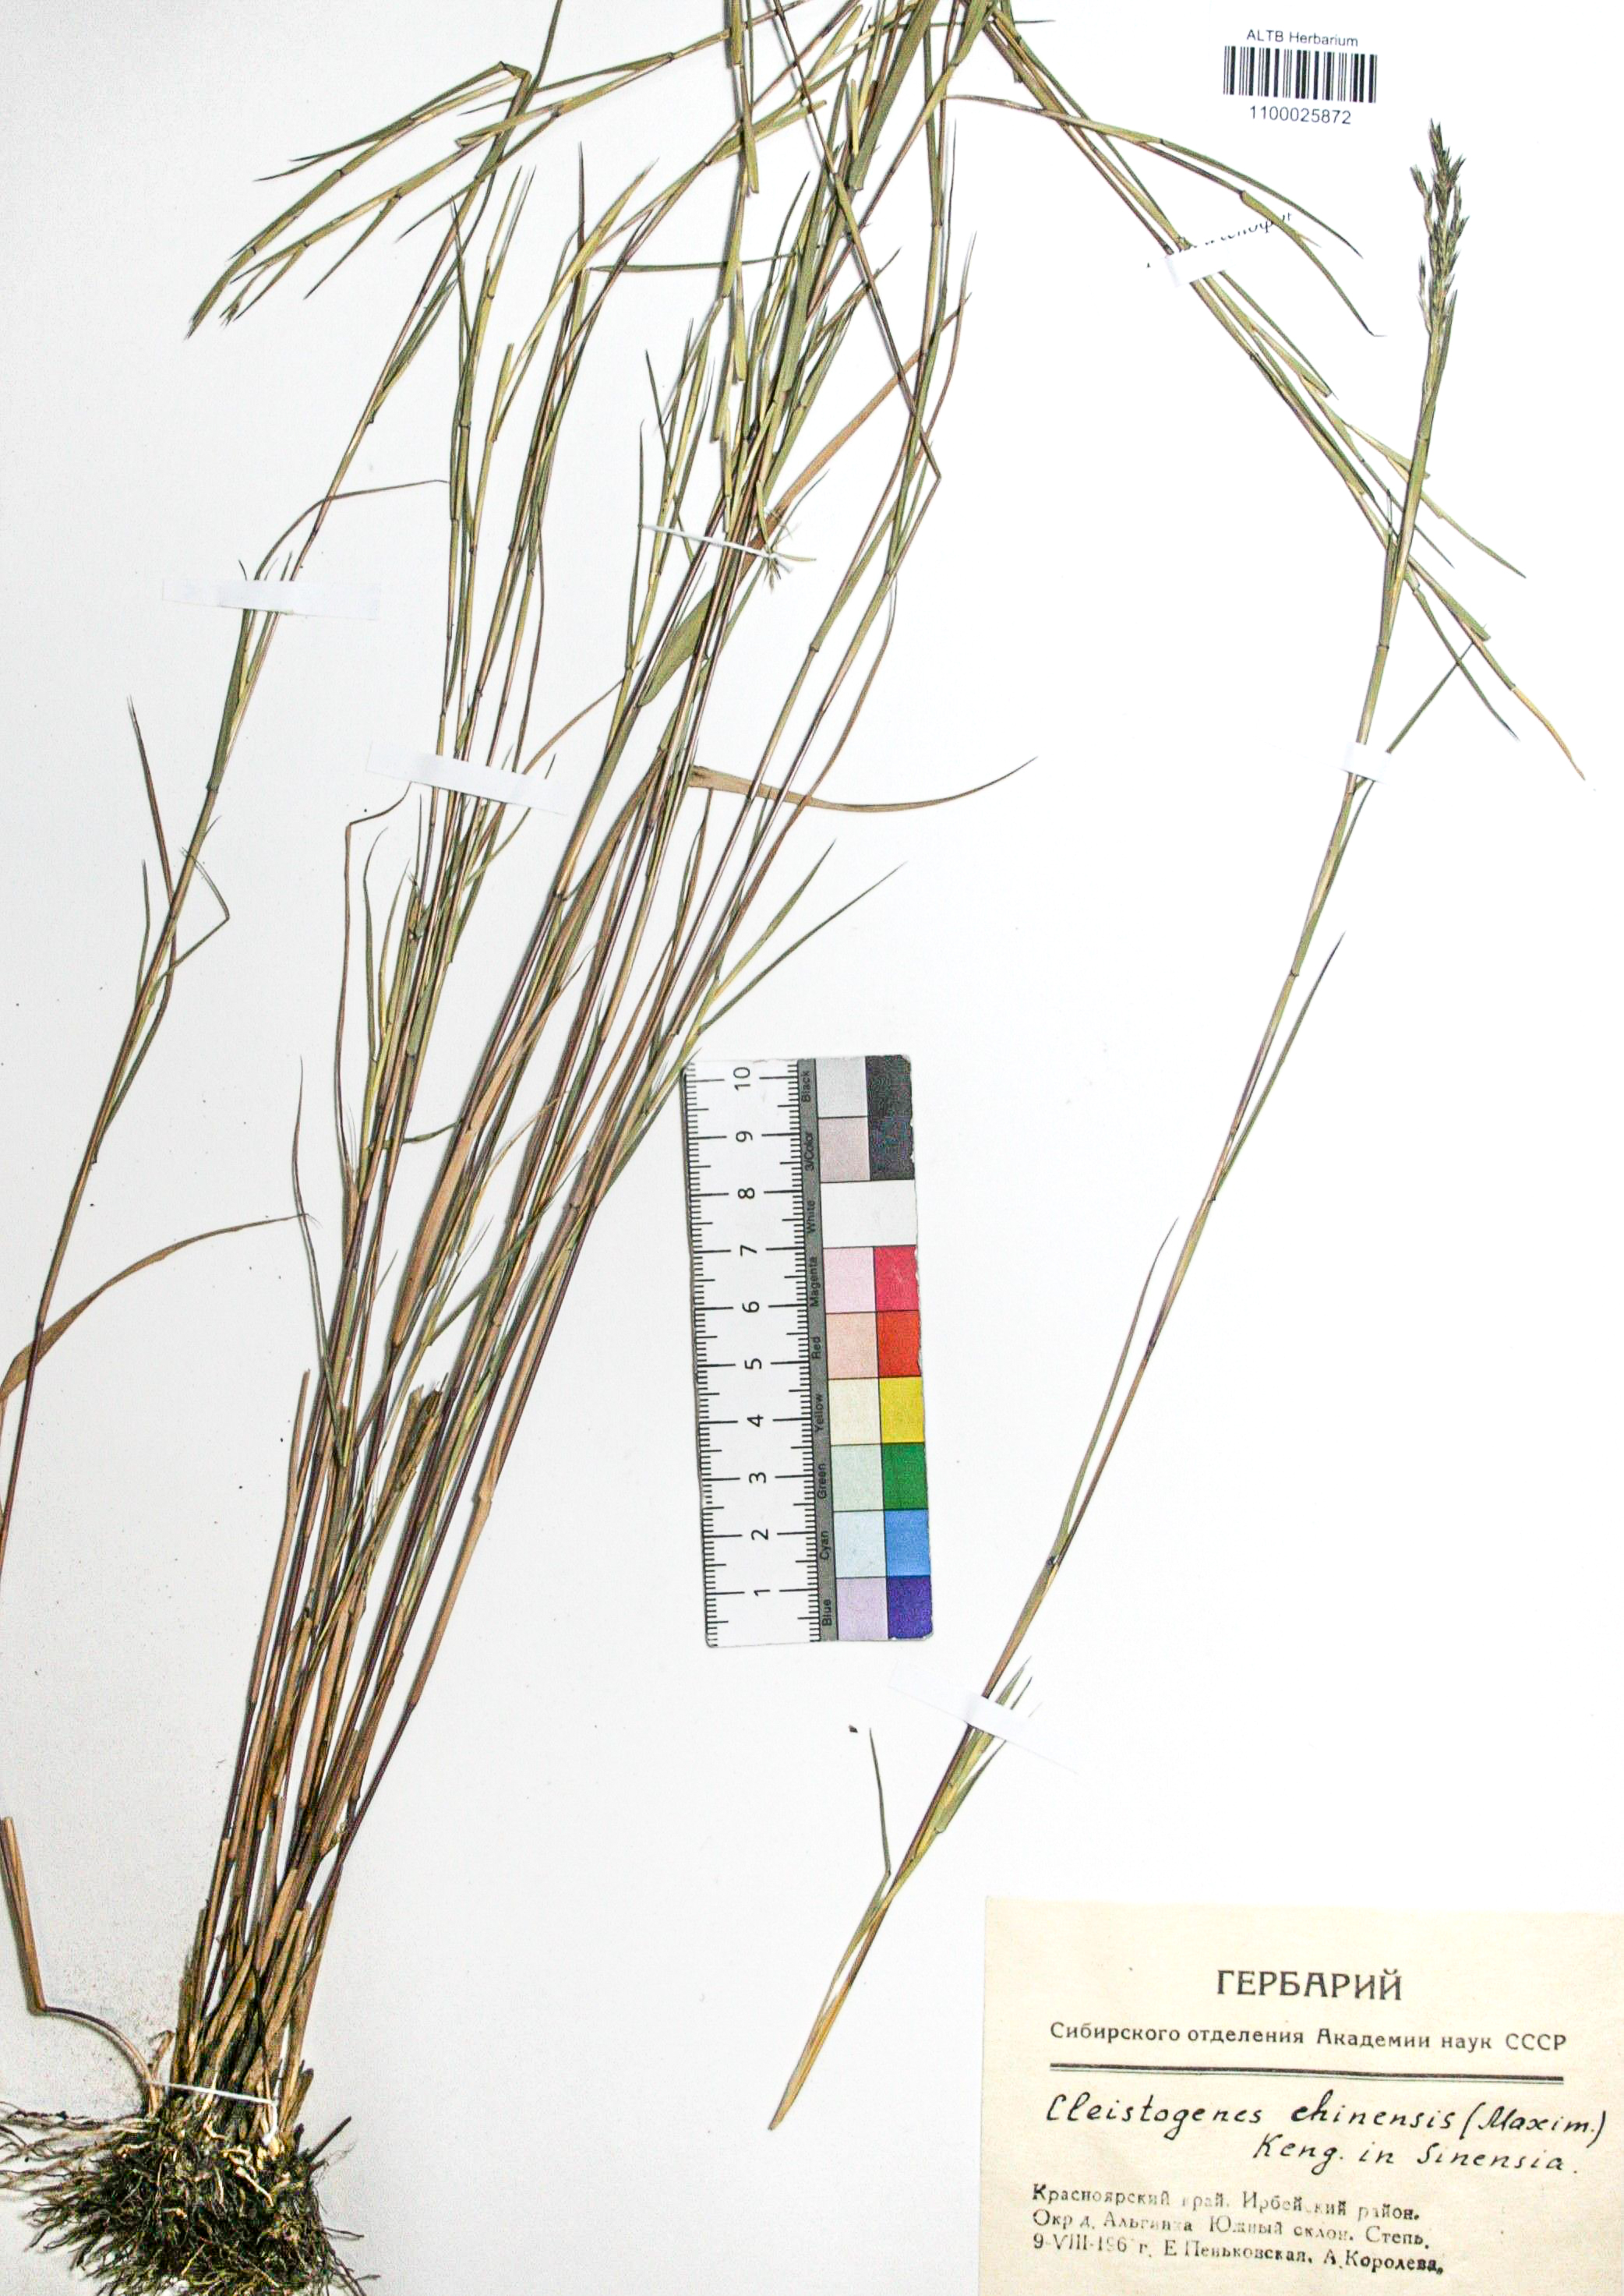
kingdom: Plantae
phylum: Tracheophyta
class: Liliopsida
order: Poales
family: Poaceae
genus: Cleistogenes
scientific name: Cleistogenes hackelii
